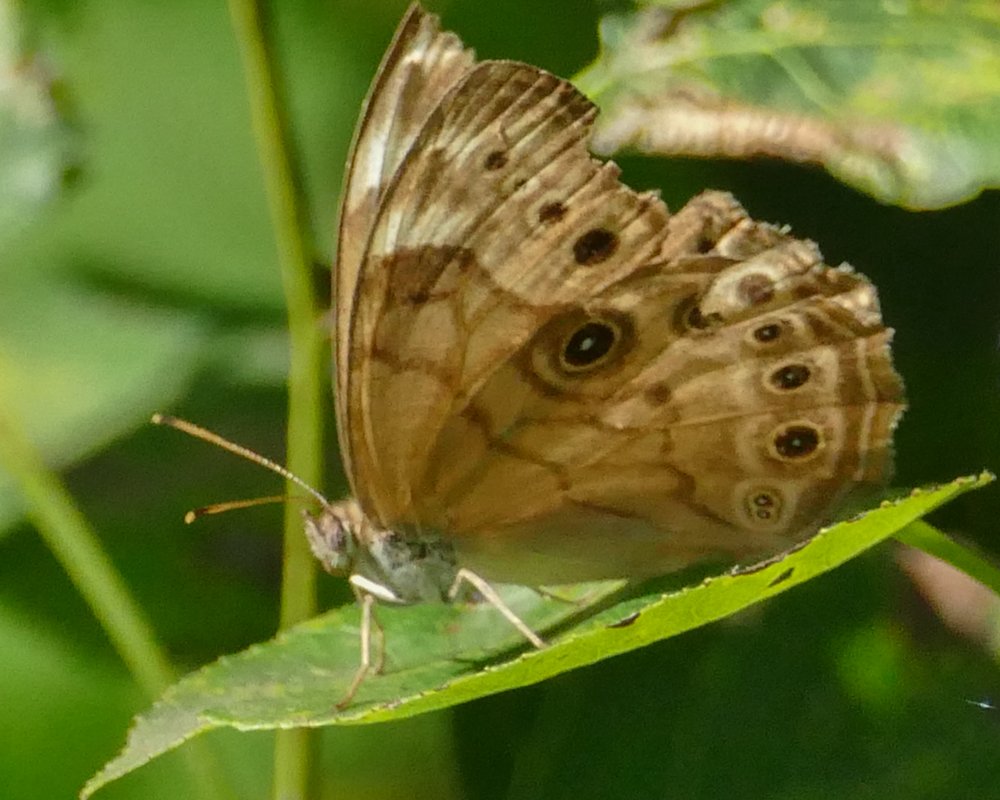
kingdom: Animalia
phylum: Arthropoda
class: Insecta
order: Lepidoptera
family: Nymphalidae
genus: Lethe
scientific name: Lethe anthedon
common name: Northern Pearly-Eye
